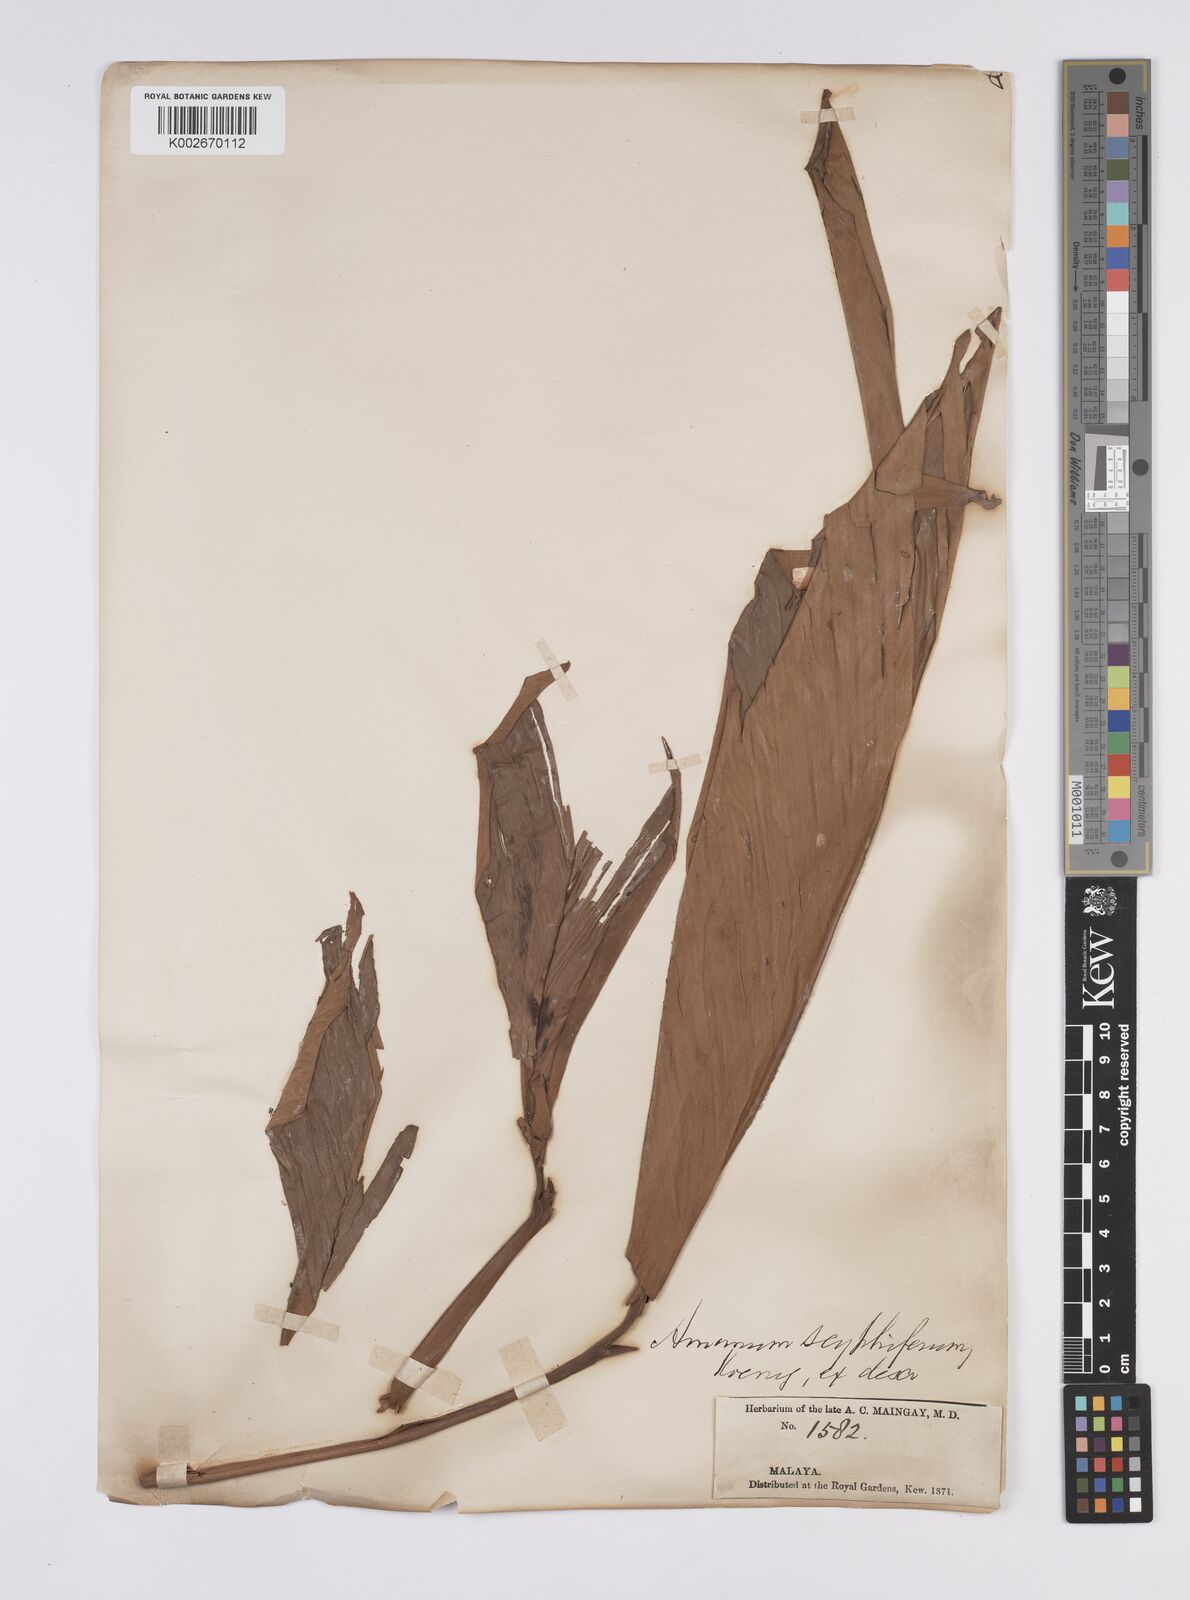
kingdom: Plantae
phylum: Tracheophyta
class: Liliopsida
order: Zingiberales
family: Zingiberaceae
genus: Hornstedtia
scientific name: Hornstedtia scyphifera
